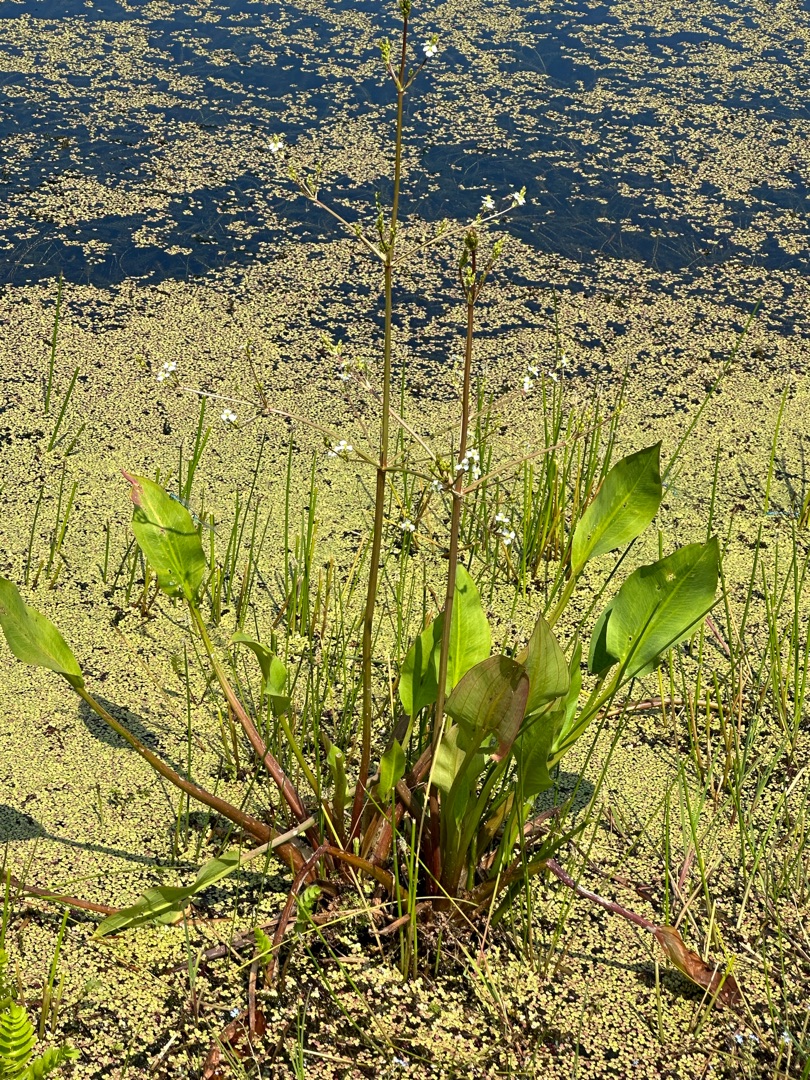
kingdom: Plantae
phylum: Tracheophyta
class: Liliopsida
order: Alismatales
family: Alismataceae
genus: Alisma
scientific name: Alisma plantago-aquatica
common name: Vejbred-skeblad
